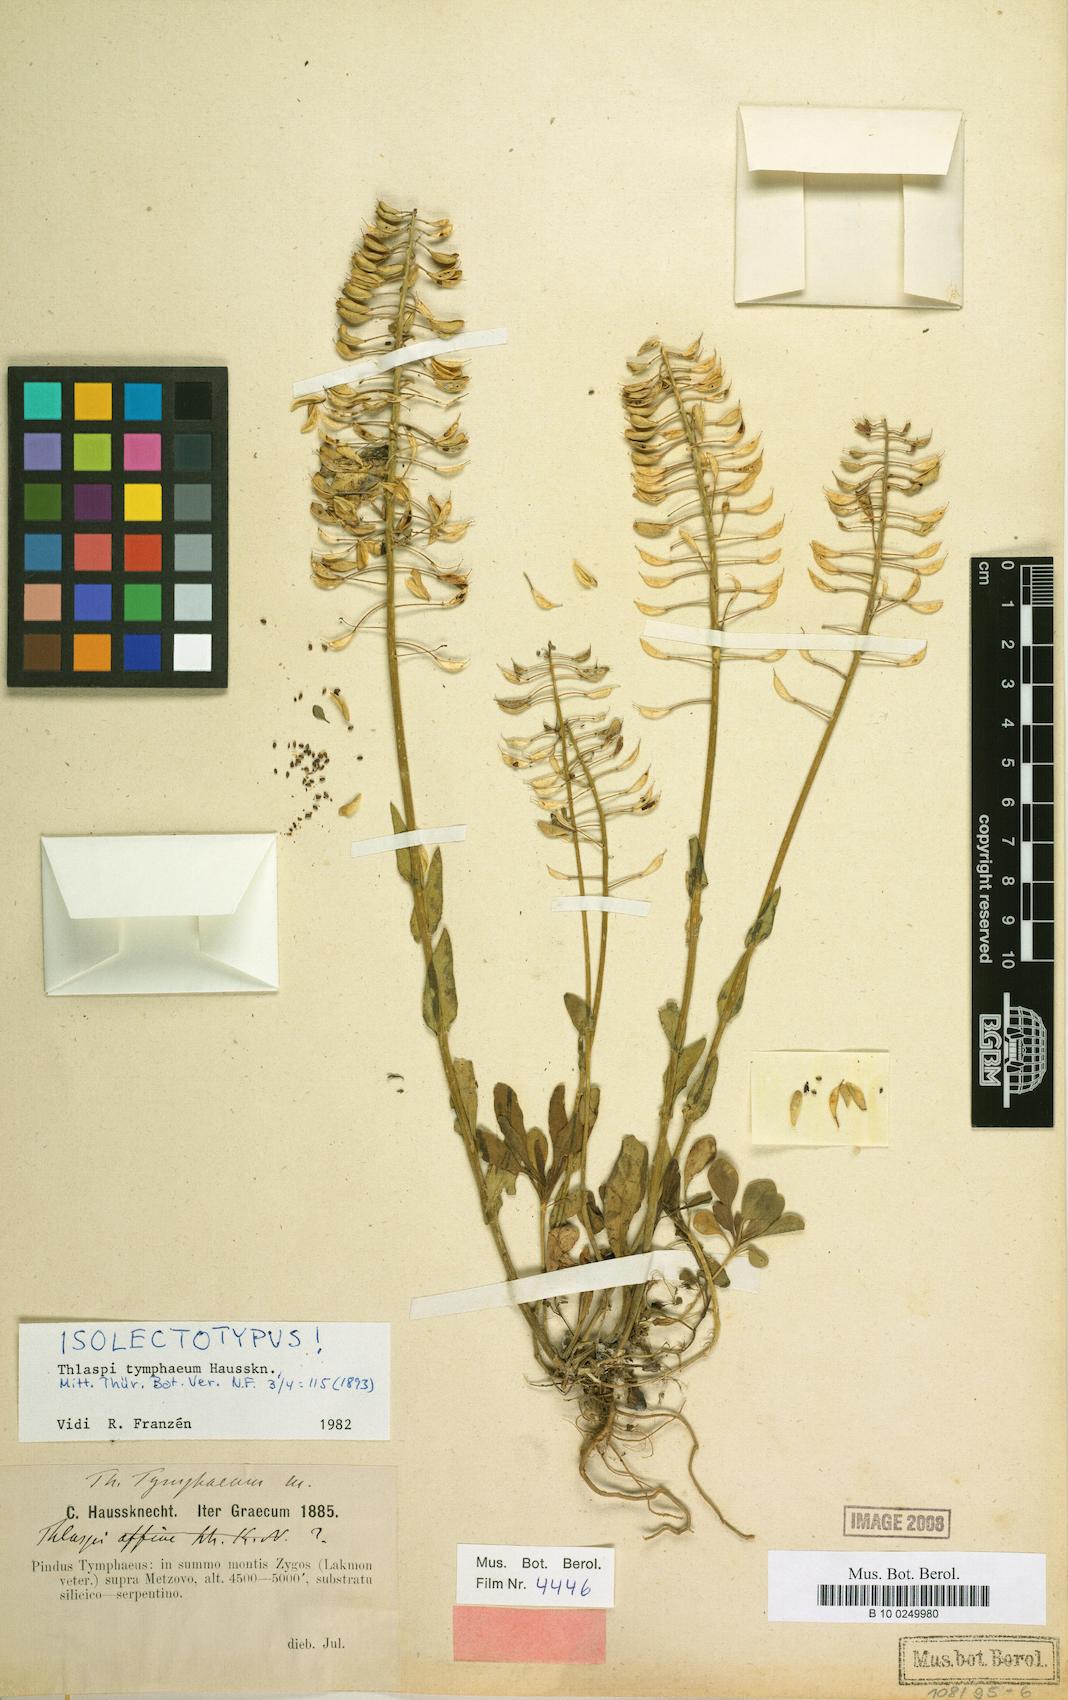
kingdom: Plantae
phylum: Tracheophyta
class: Magnoliopsida
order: Brassicales
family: Brassicaceae
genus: Noccaea
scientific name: Noccaea tymphaea
